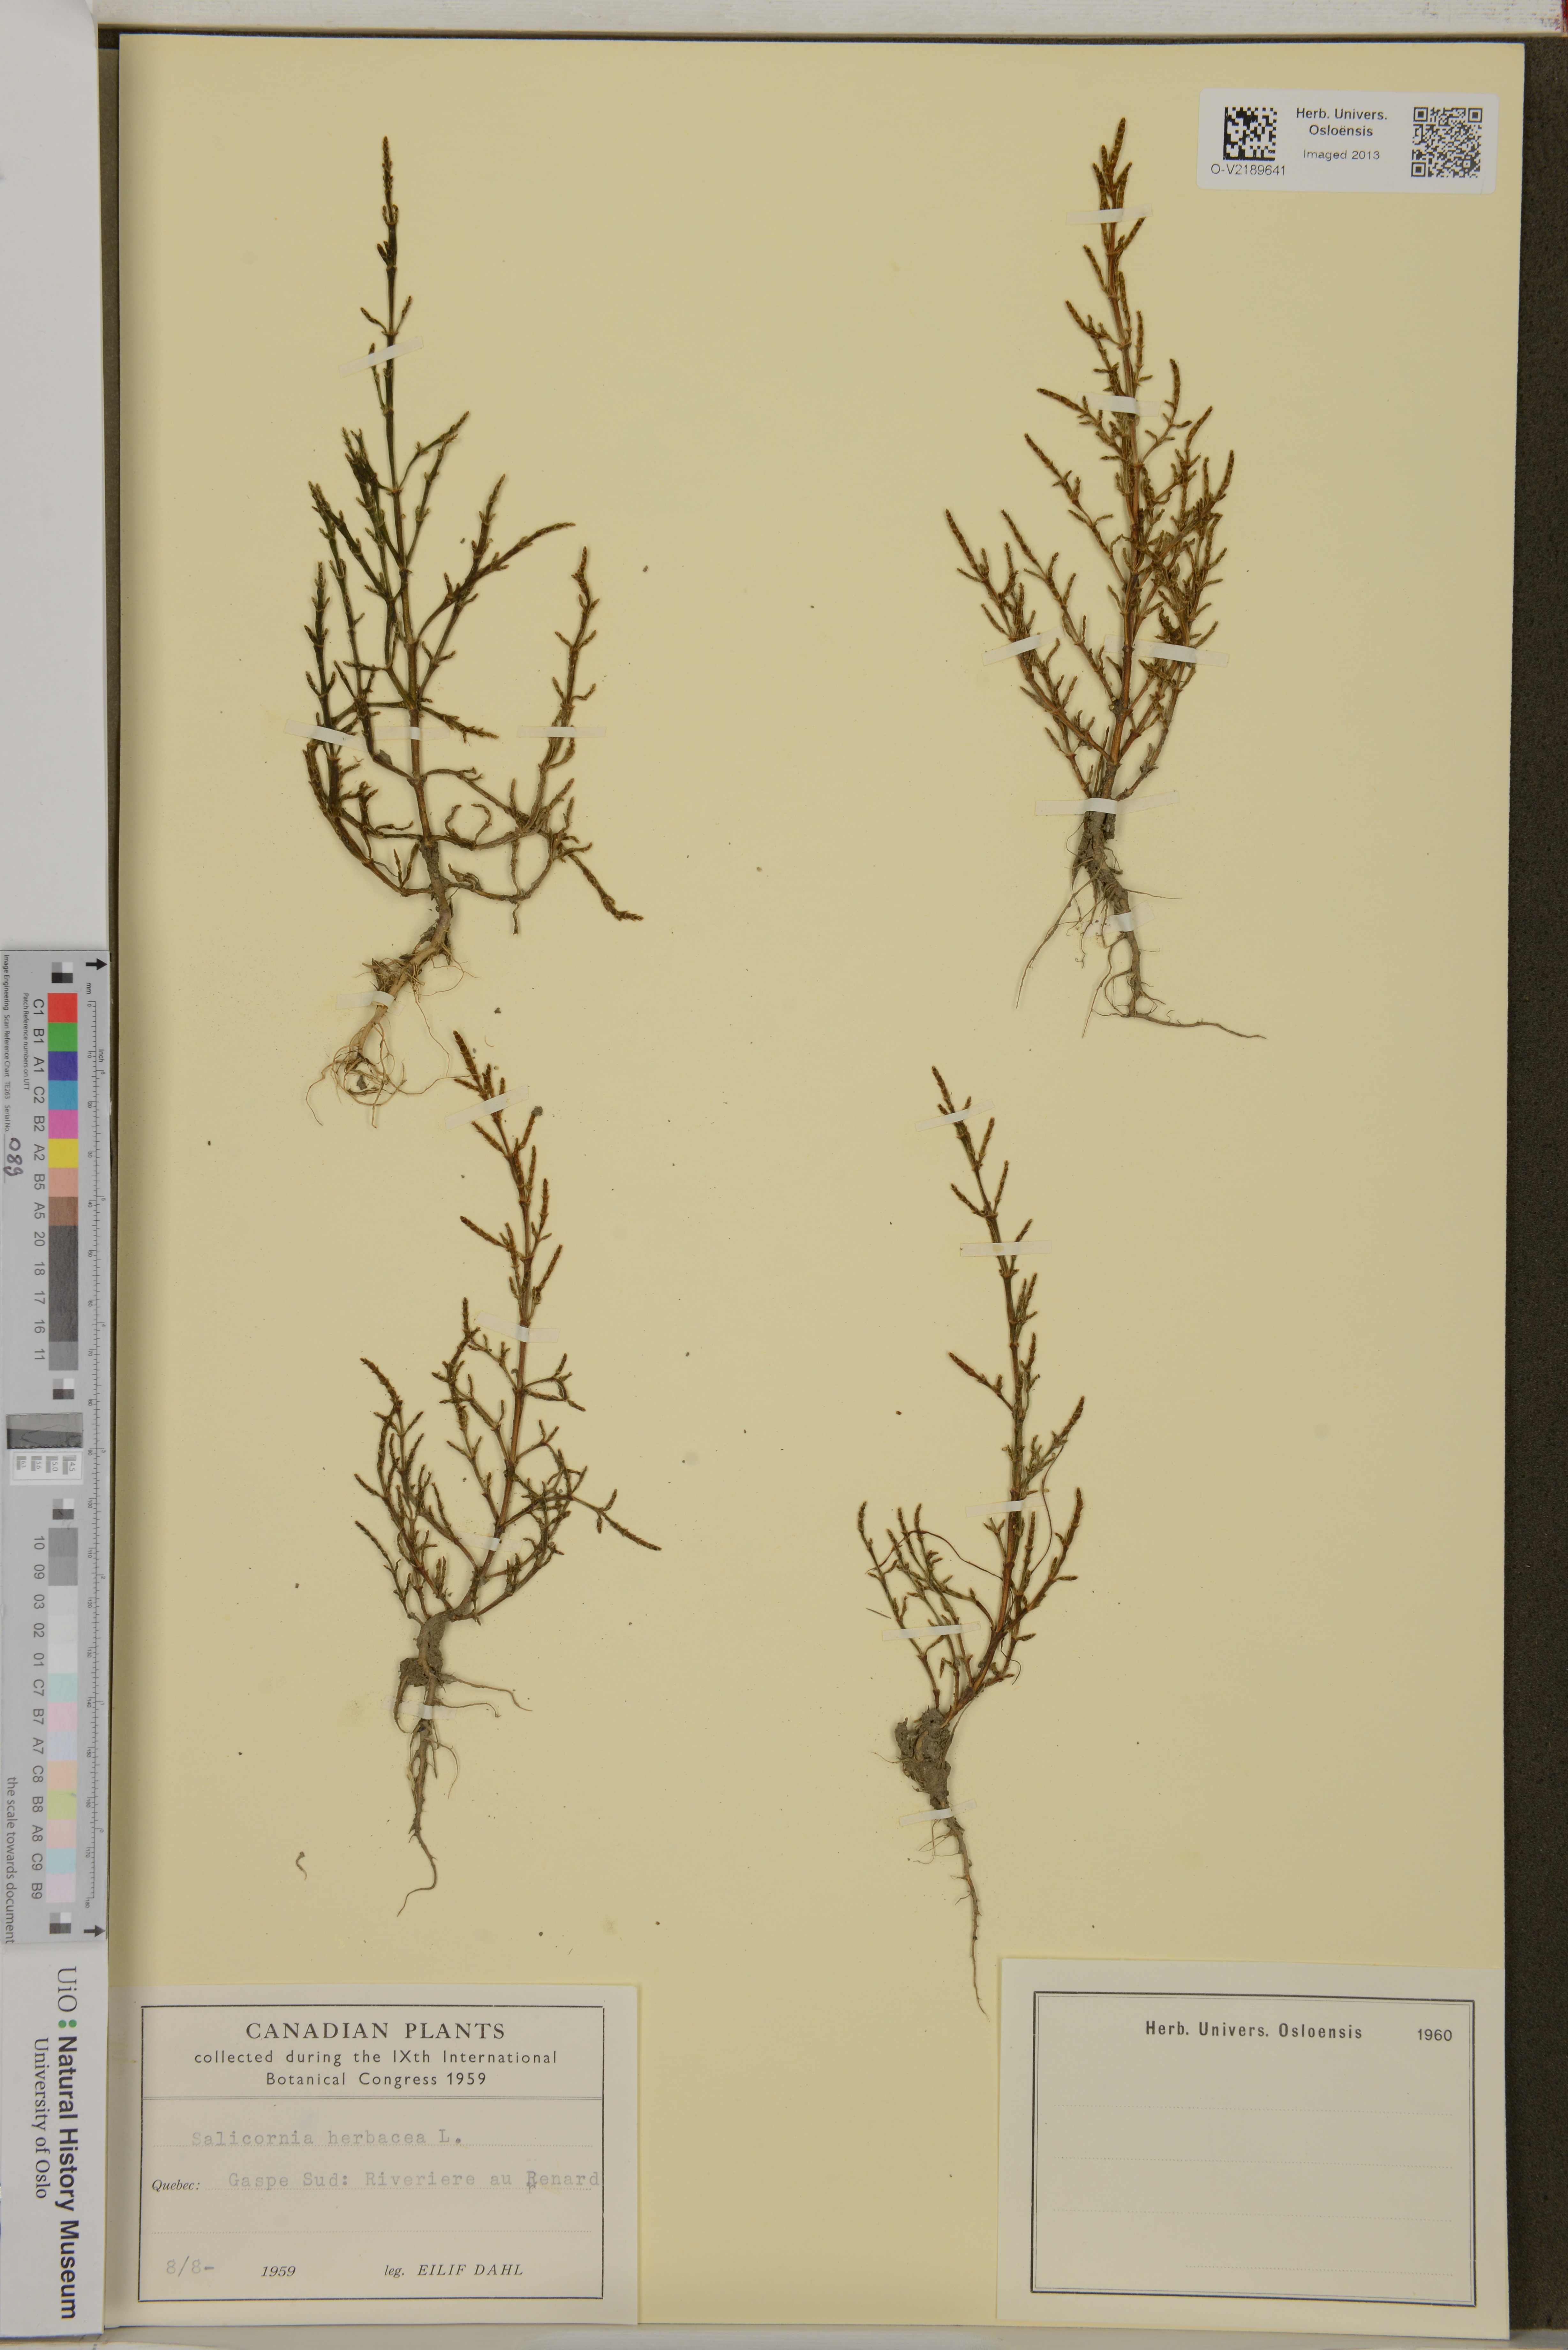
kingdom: Plantae
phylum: Tracheophyta
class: Magnoliopsida
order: Caryophyllales
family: Amaranthaceae
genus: Salicornia
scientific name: Salicornia europaea
